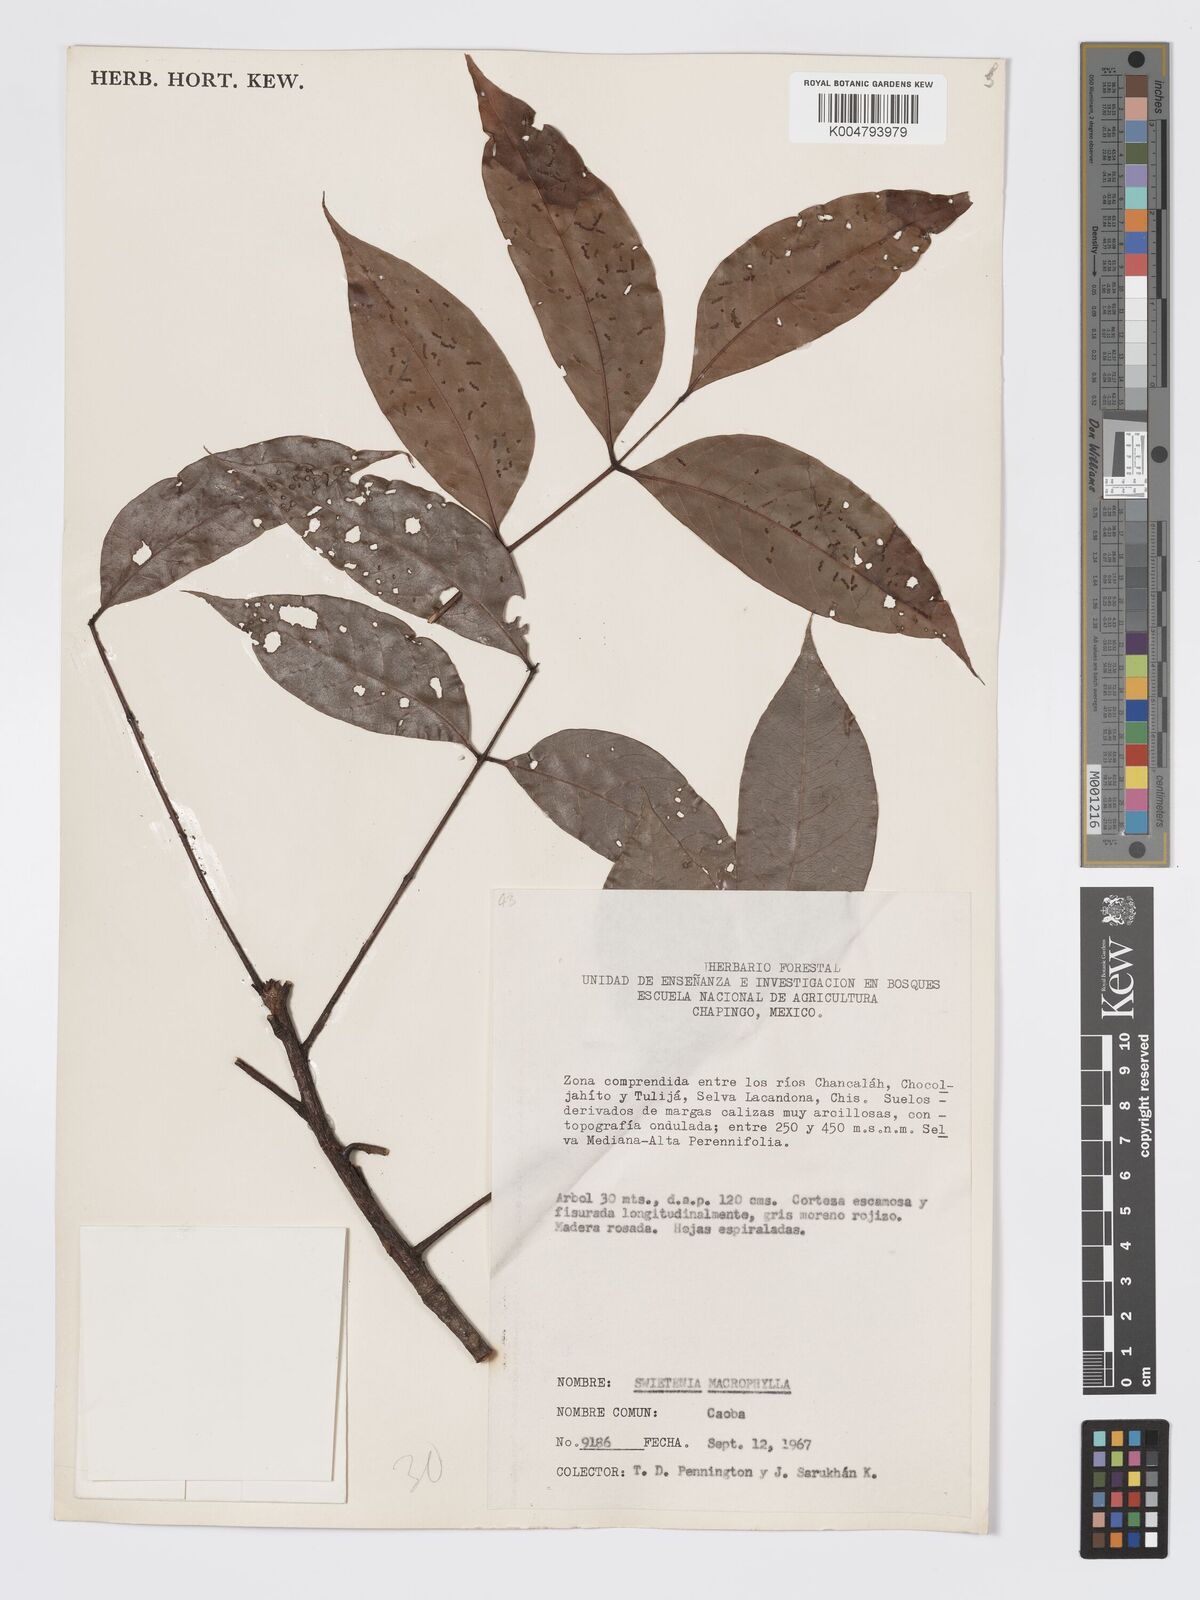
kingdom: Plantae
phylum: Tracheophyta
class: Magnoliopsida
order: Sapindales
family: Meliaceae
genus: Swietenia
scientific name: Swietenia macrophylla
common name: Honduras mahogany
